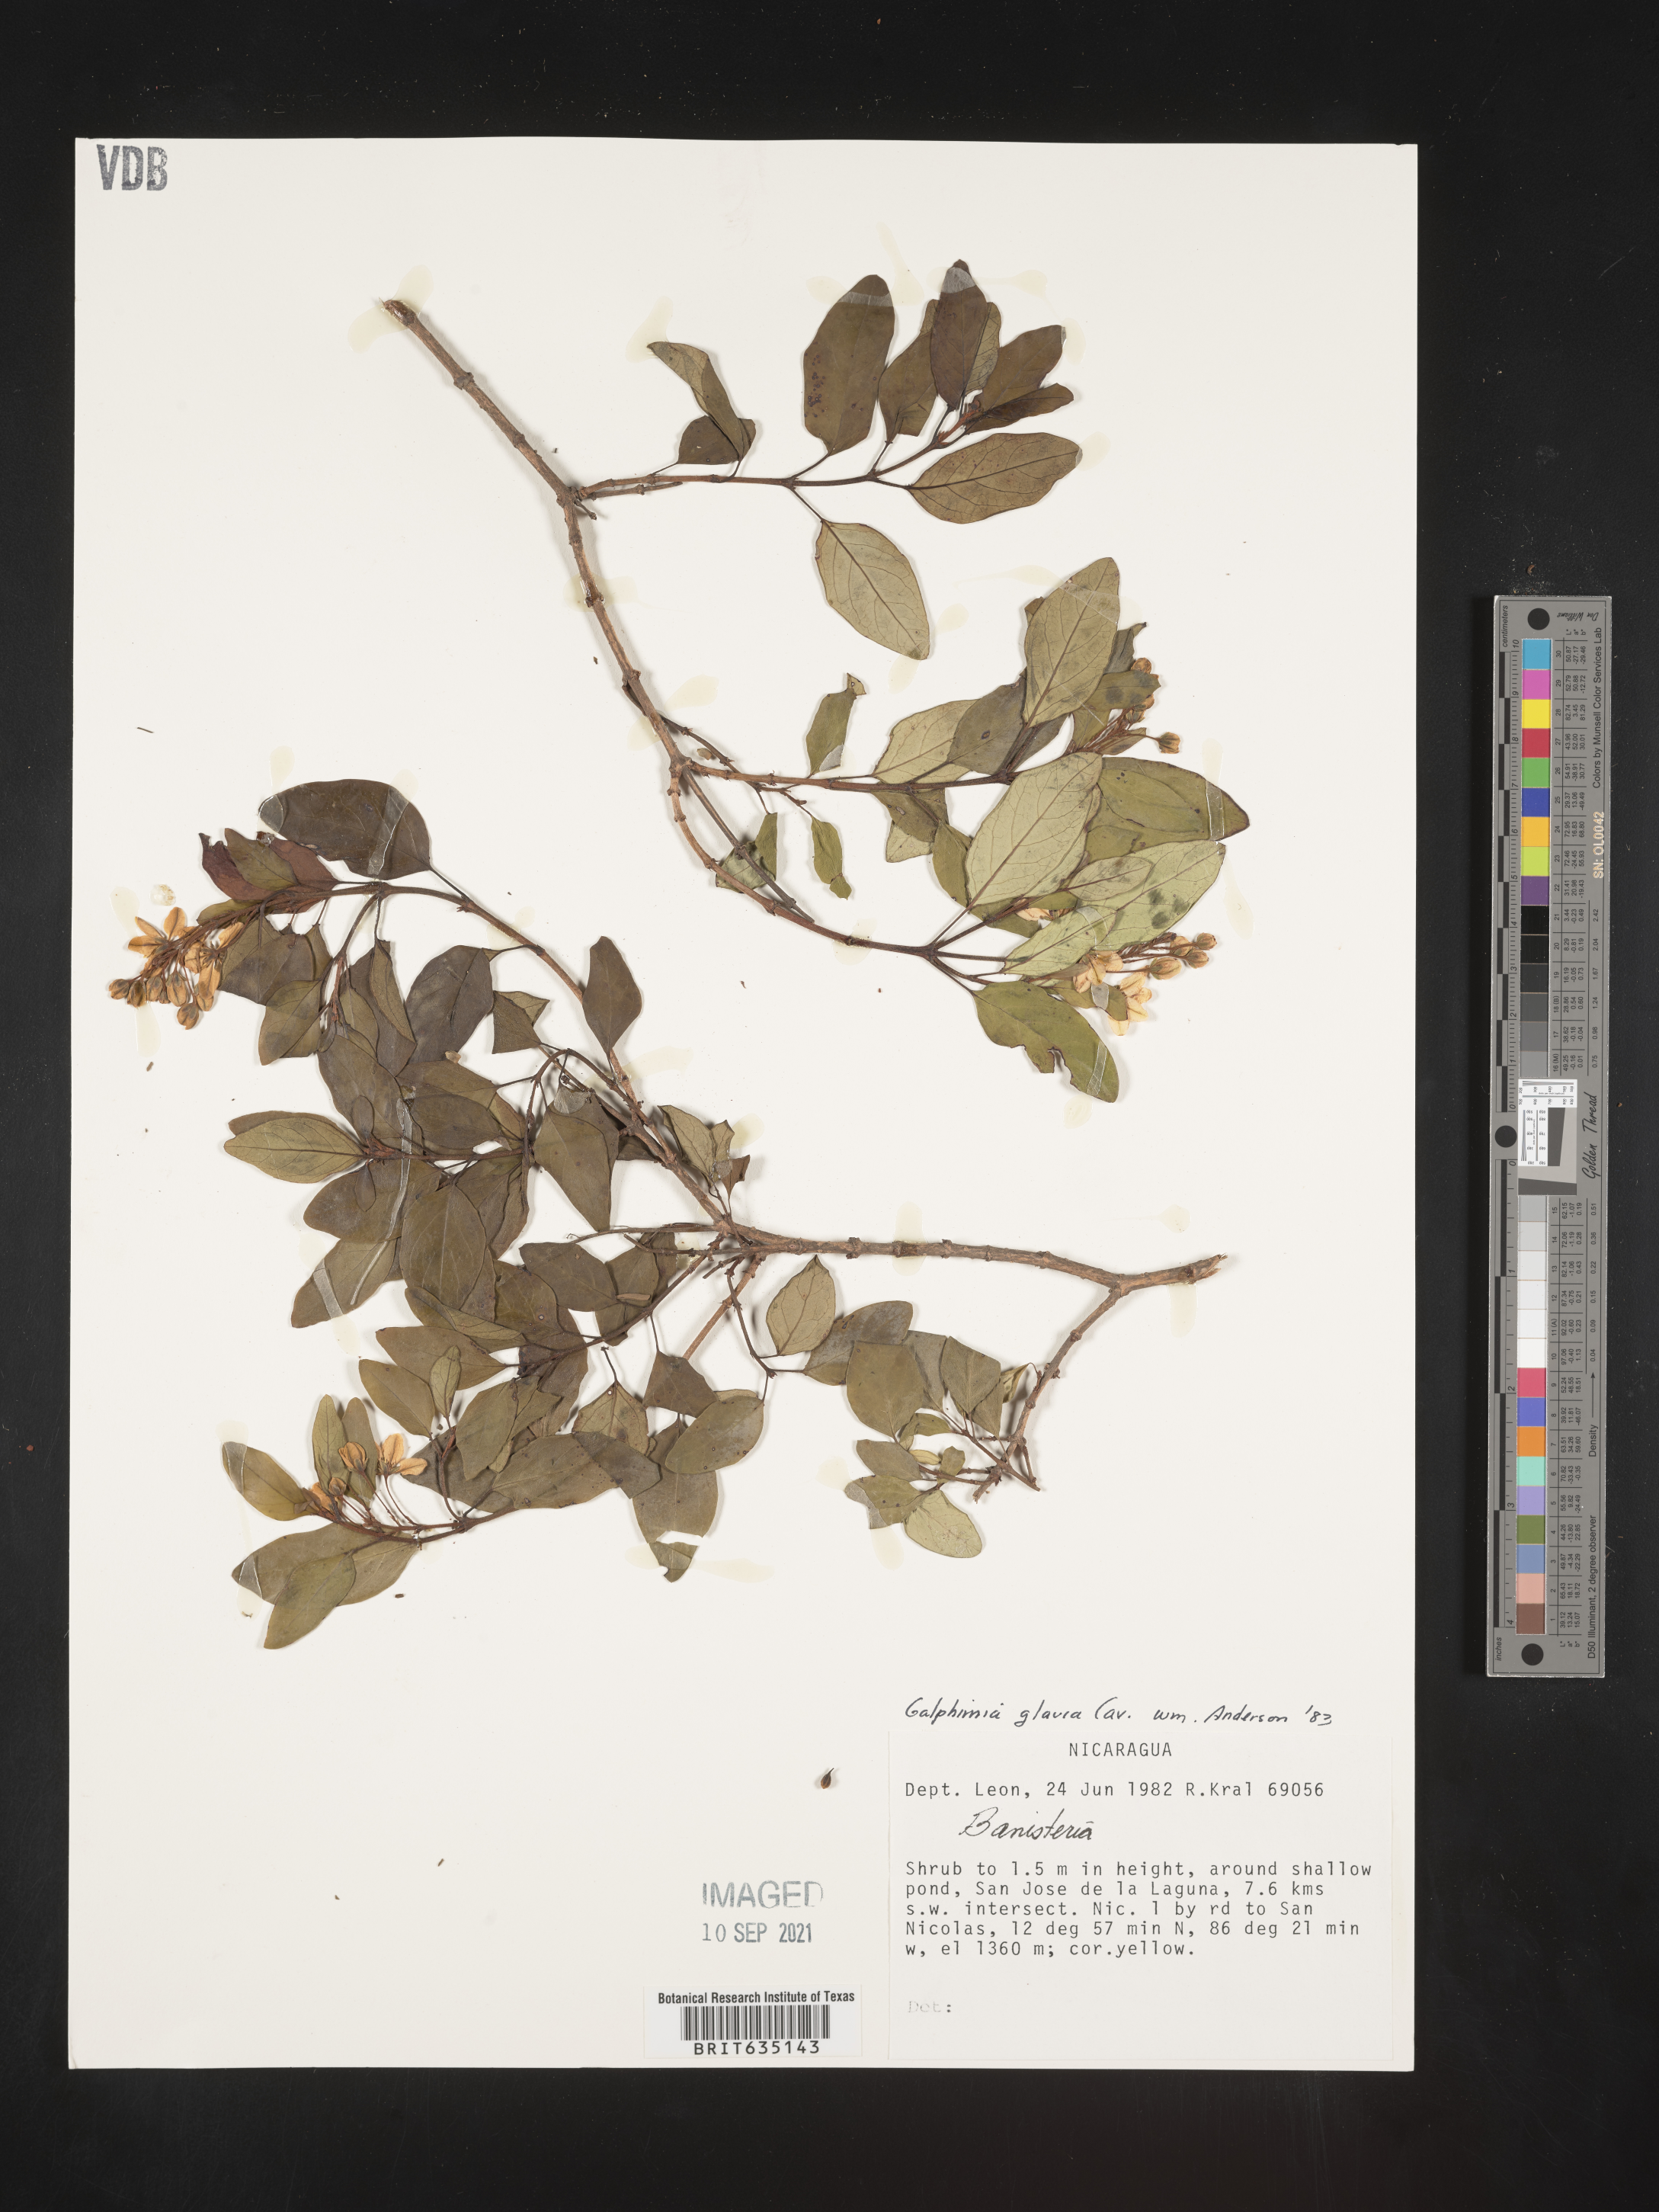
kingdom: Plantae
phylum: Tracheophyta
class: Magnoliopsida
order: Malpighiales
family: Malpighiaceae
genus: Galphimia
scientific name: Galphimia
